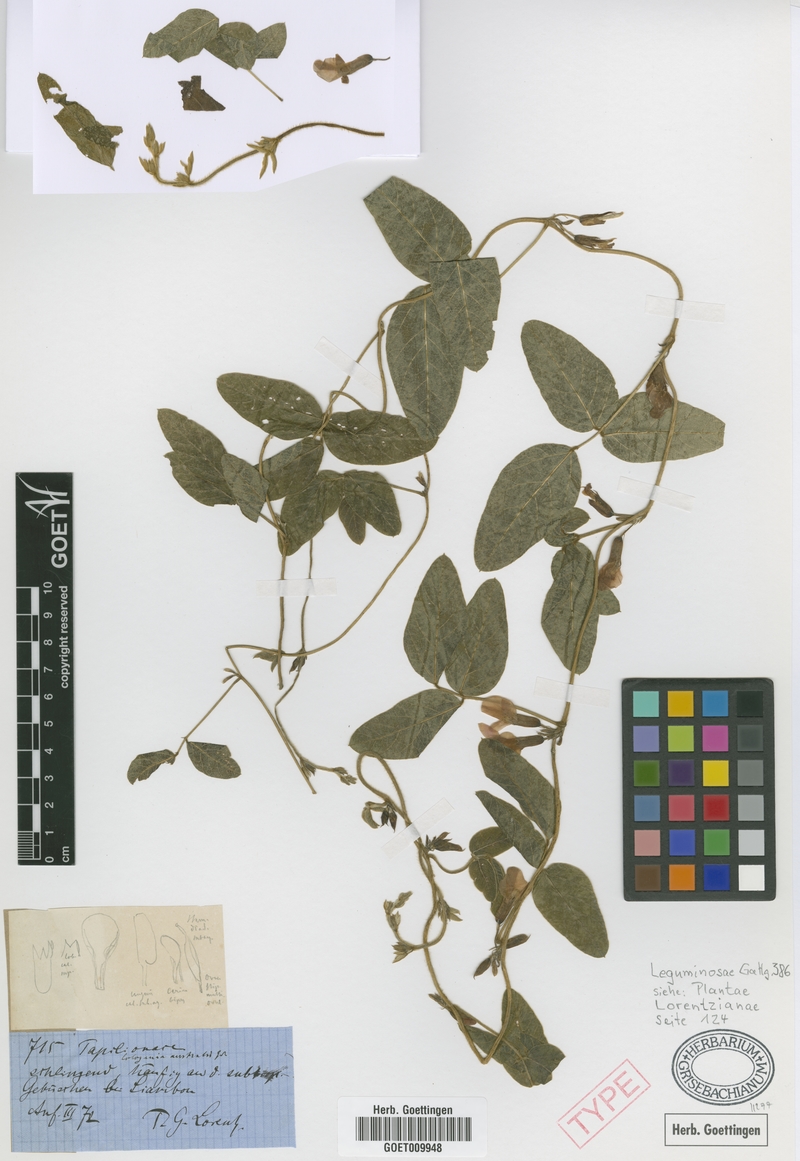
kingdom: Plantae
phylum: Tracheophyta
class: Magnoliopsida
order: Fabales
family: Fabaceae
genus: Cologania
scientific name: Cologania broussonetii
